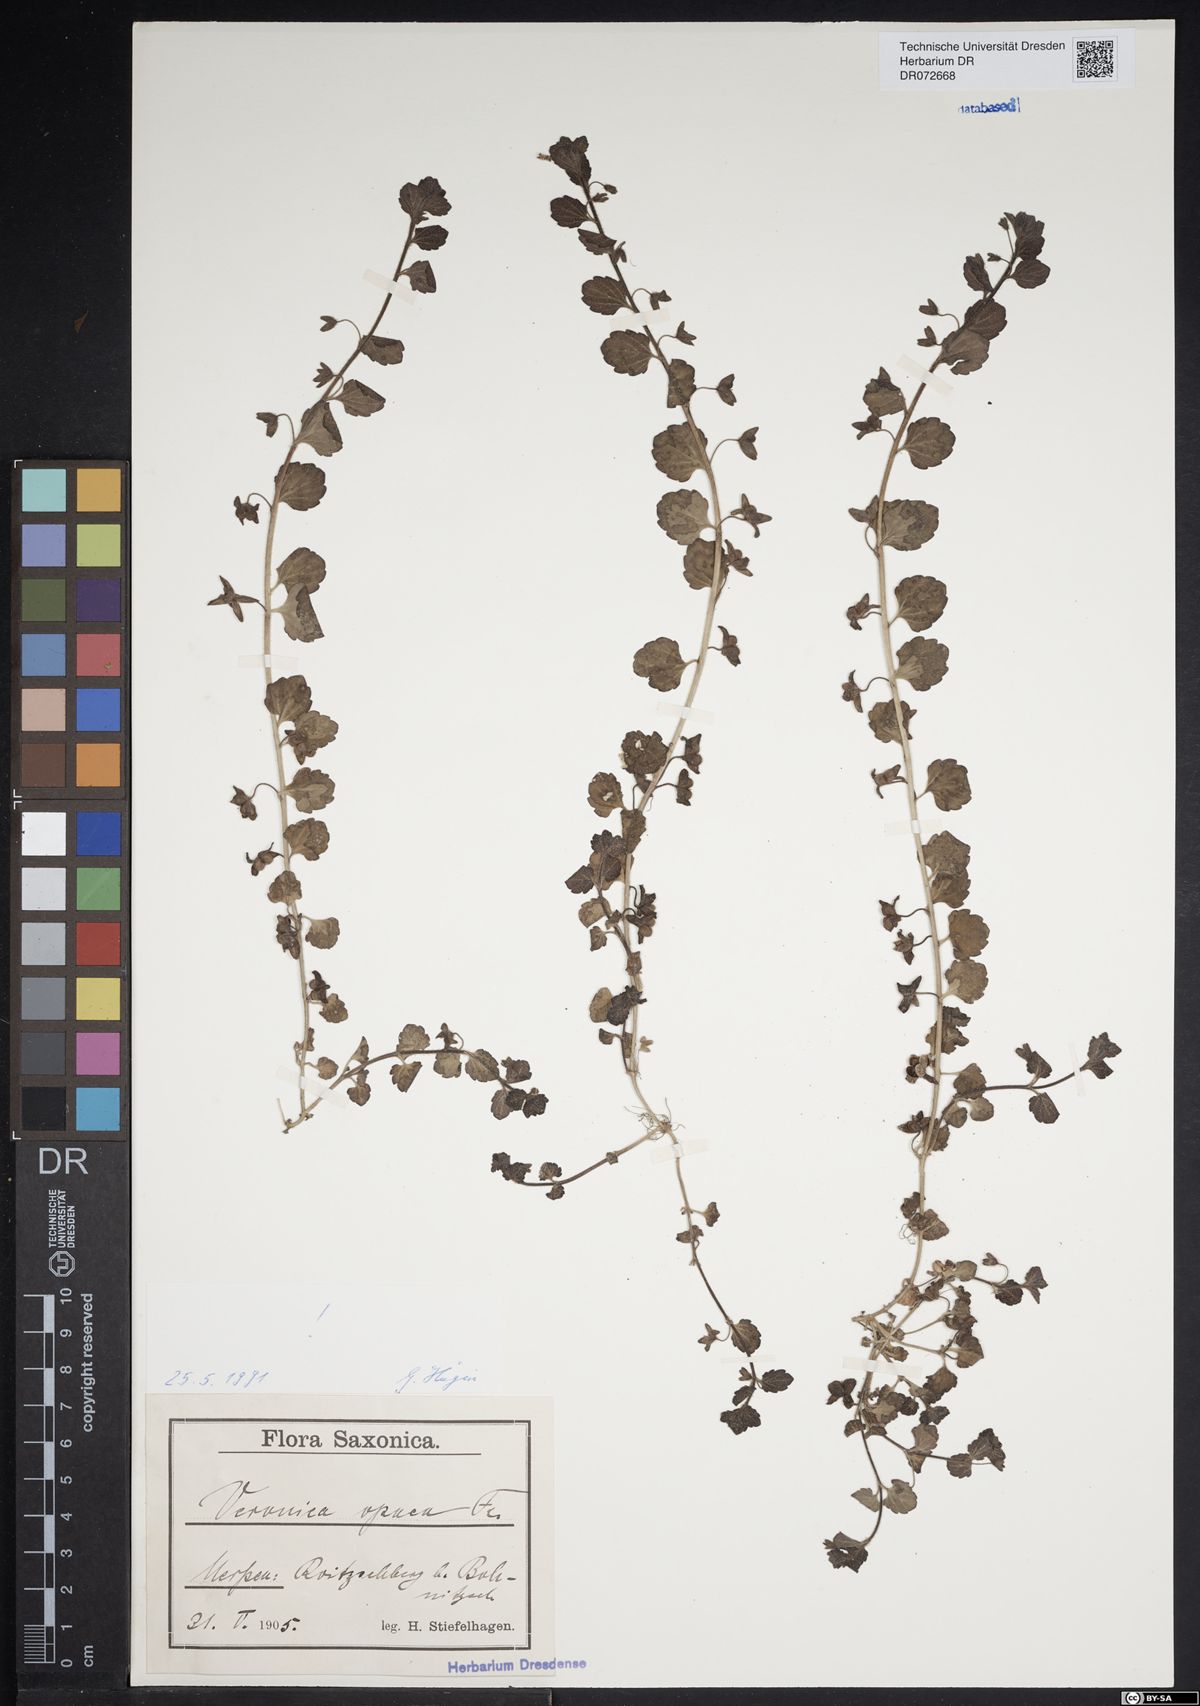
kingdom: Plantae
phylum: Tracheophyta
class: Magnoliopsida
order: Lamiales
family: Plantaginaceae
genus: Veronica
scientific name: Veronica opaca
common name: Dark speedwell
